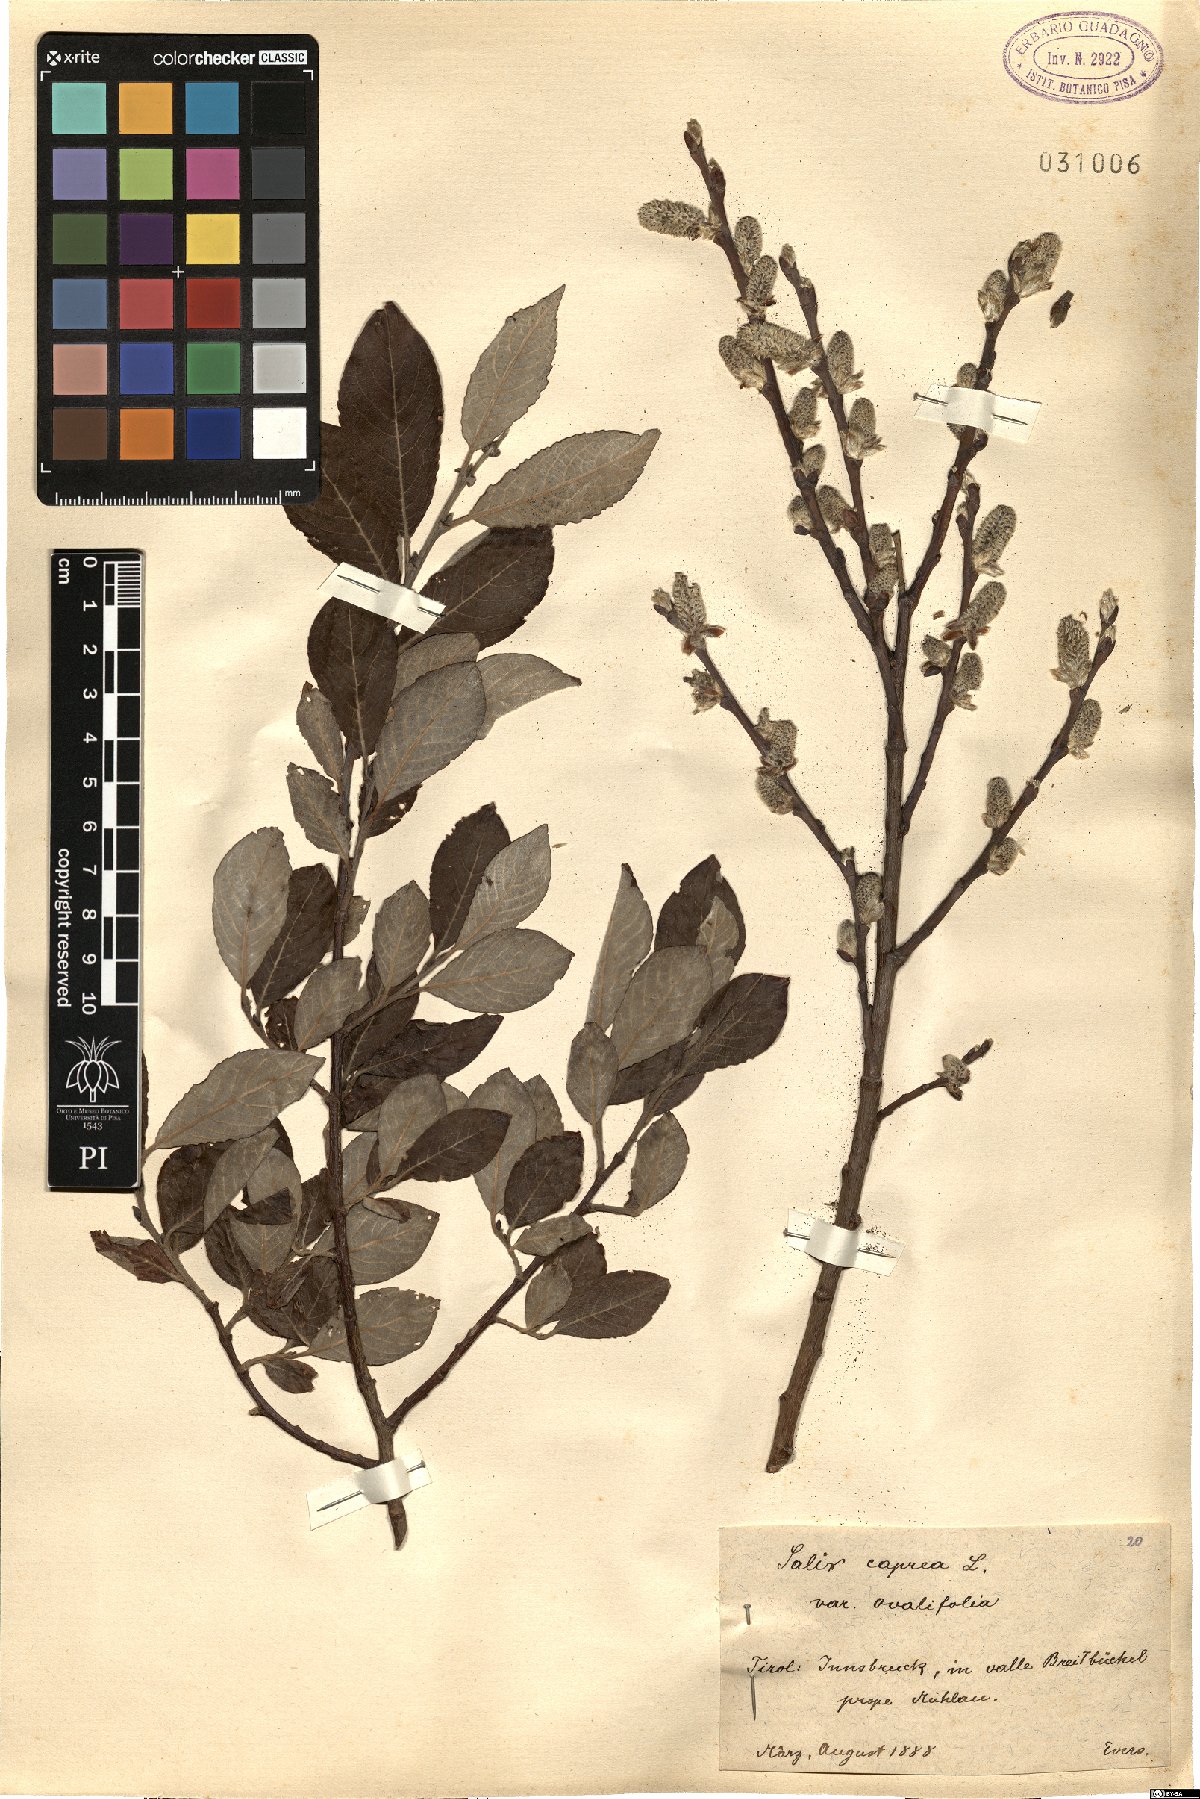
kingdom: Plantae
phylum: Tracheophyta
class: Magnoliopsida
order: Malpighiales
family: Salicaceae
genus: Salix
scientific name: Salix caprea
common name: Goat willow
